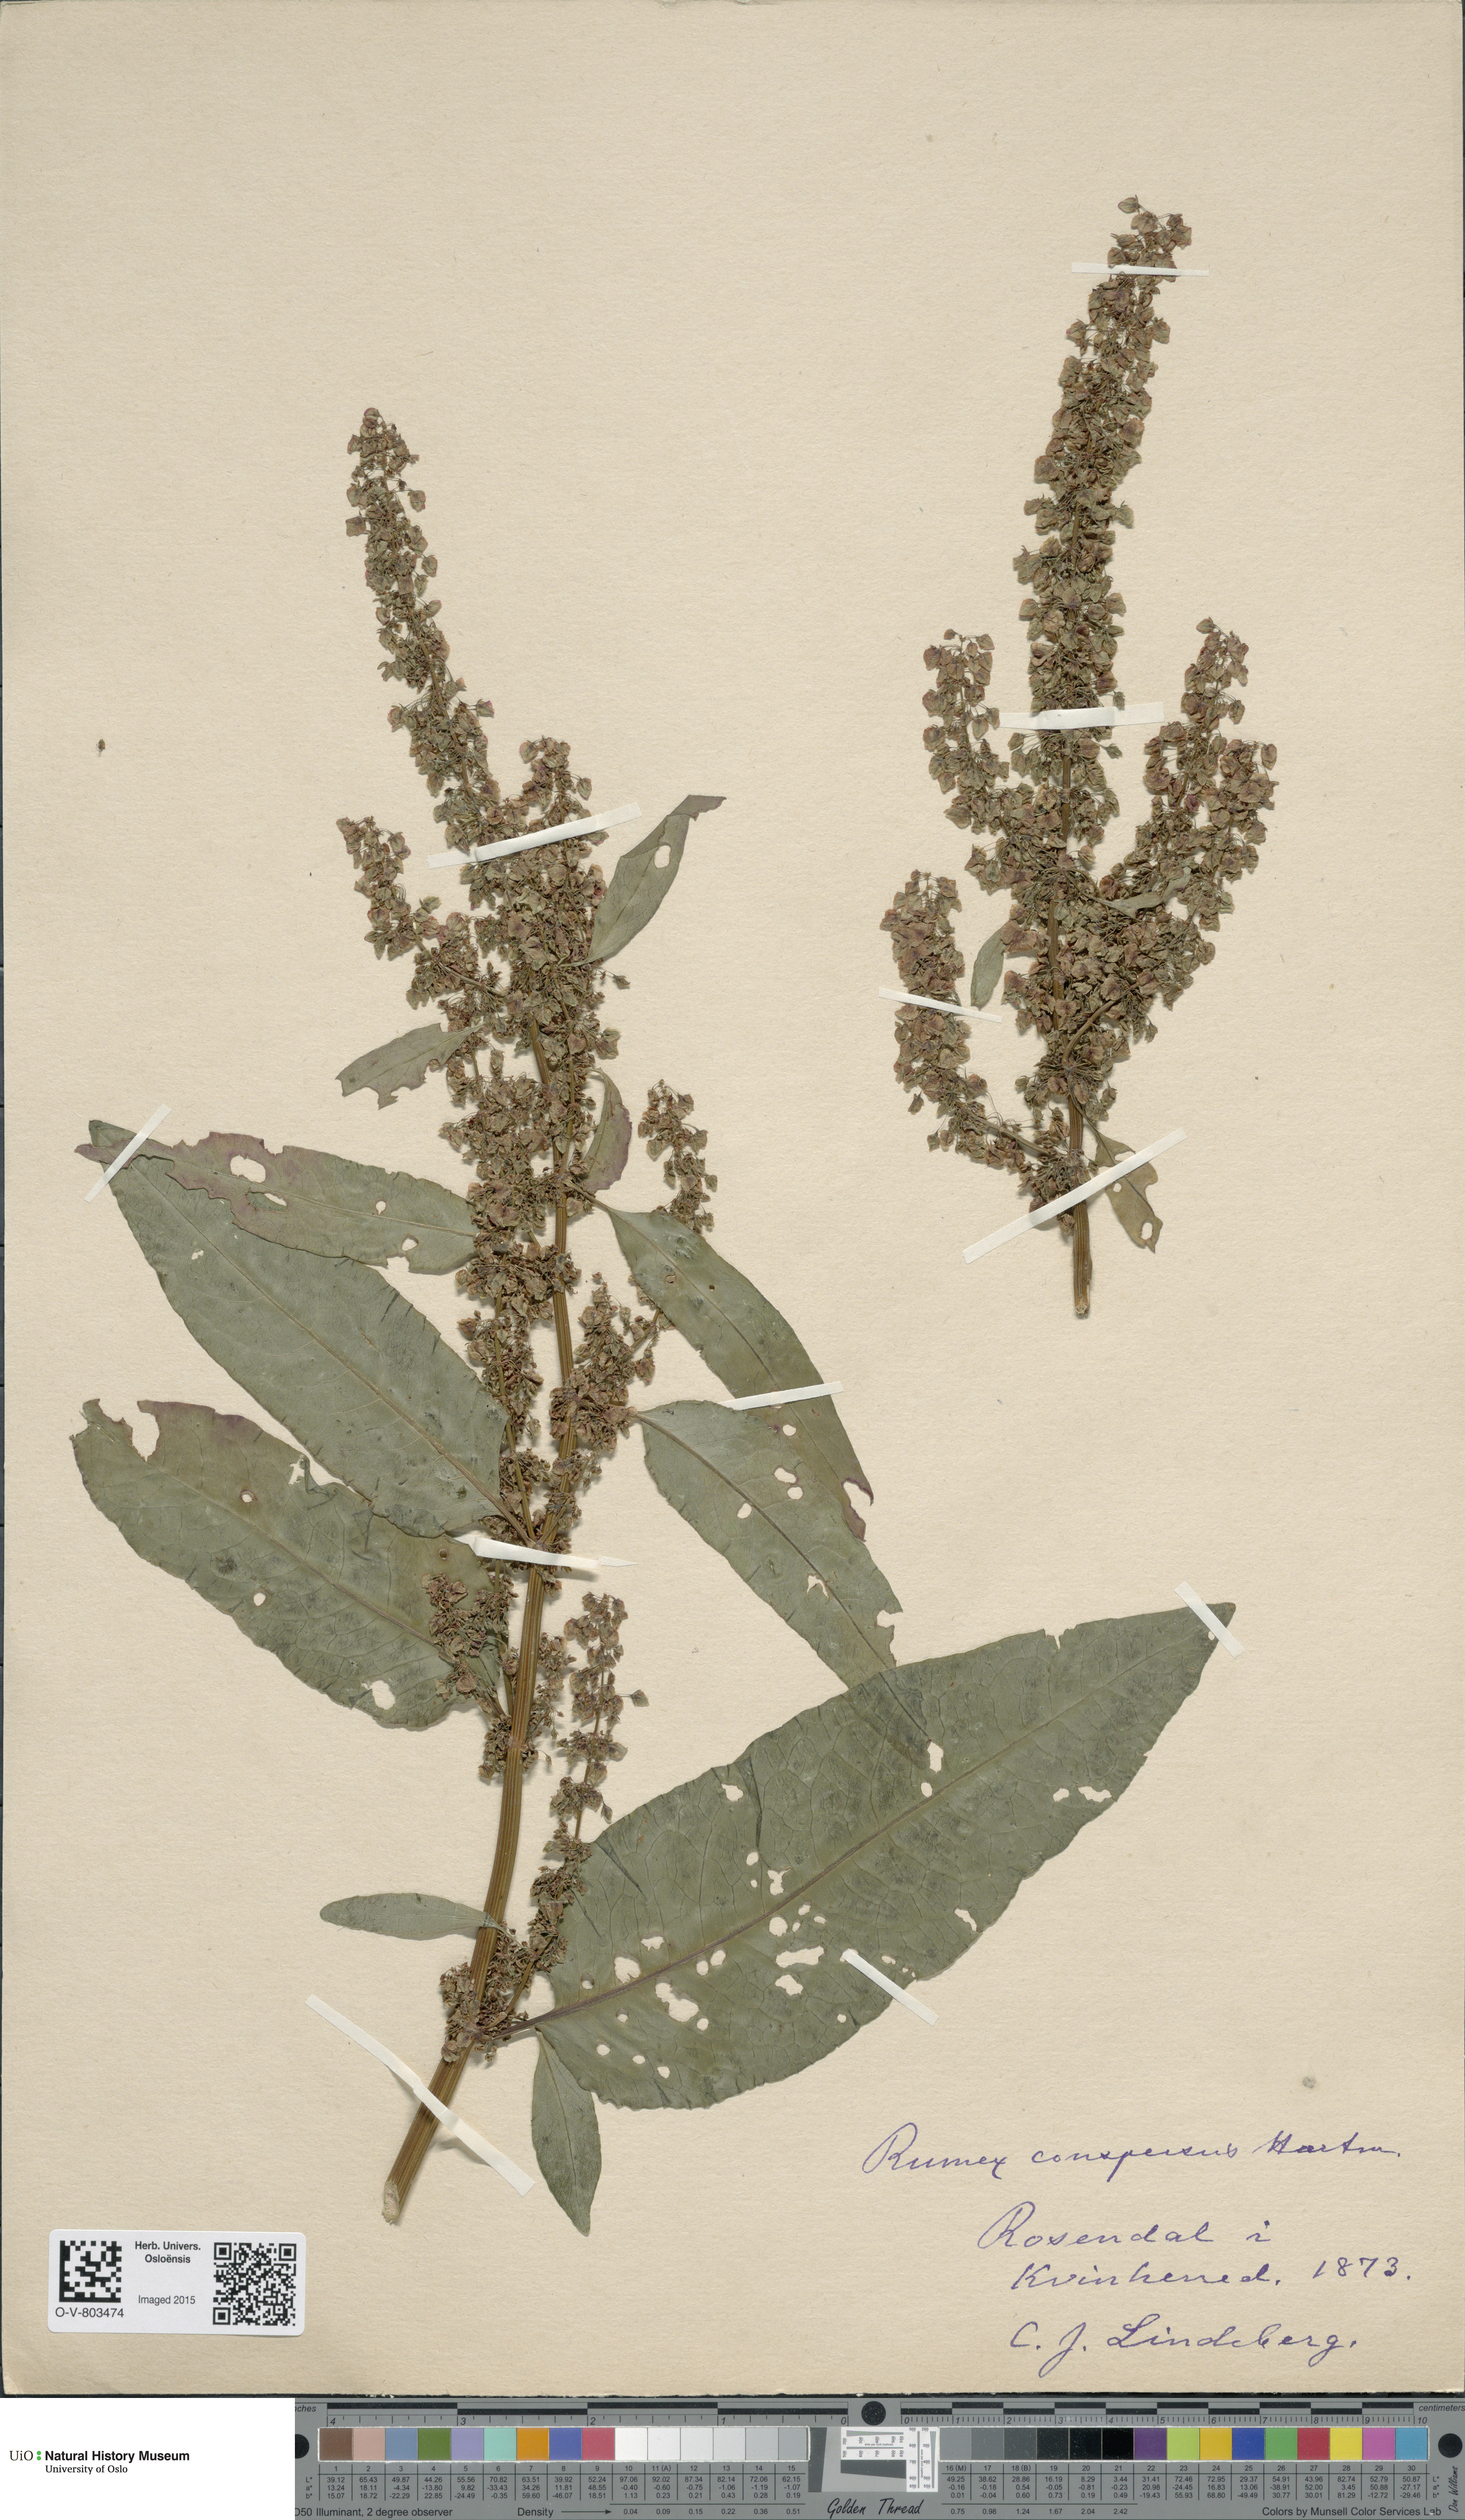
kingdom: Plantae
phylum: Tracheophyta
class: Magnoliopsida
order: Caryophyllales
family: Polygonaceae
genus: Rumex
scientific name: Rumex
